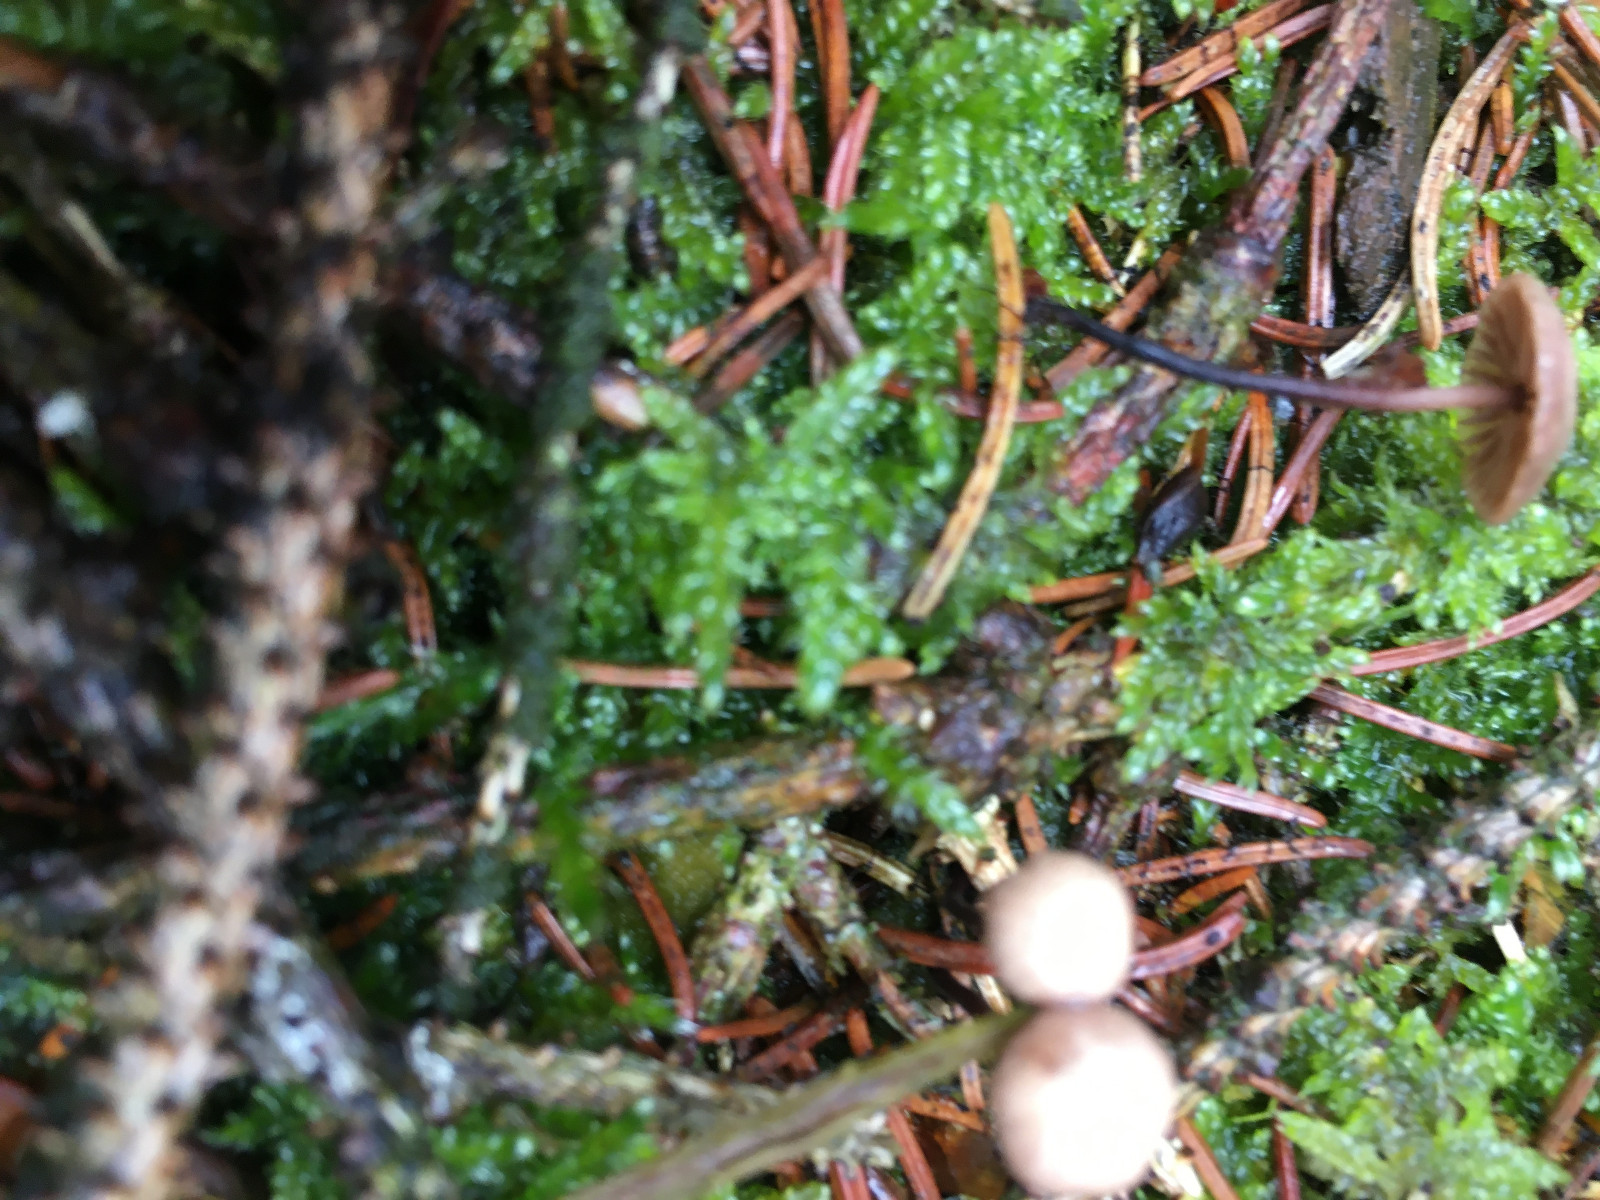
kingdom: Fungi
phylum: Basidiomycota
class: Agaricomycetes
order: Agaricales
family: Omphalotaceae
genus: Paragymnopus
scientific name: Paragymnopus perforans
